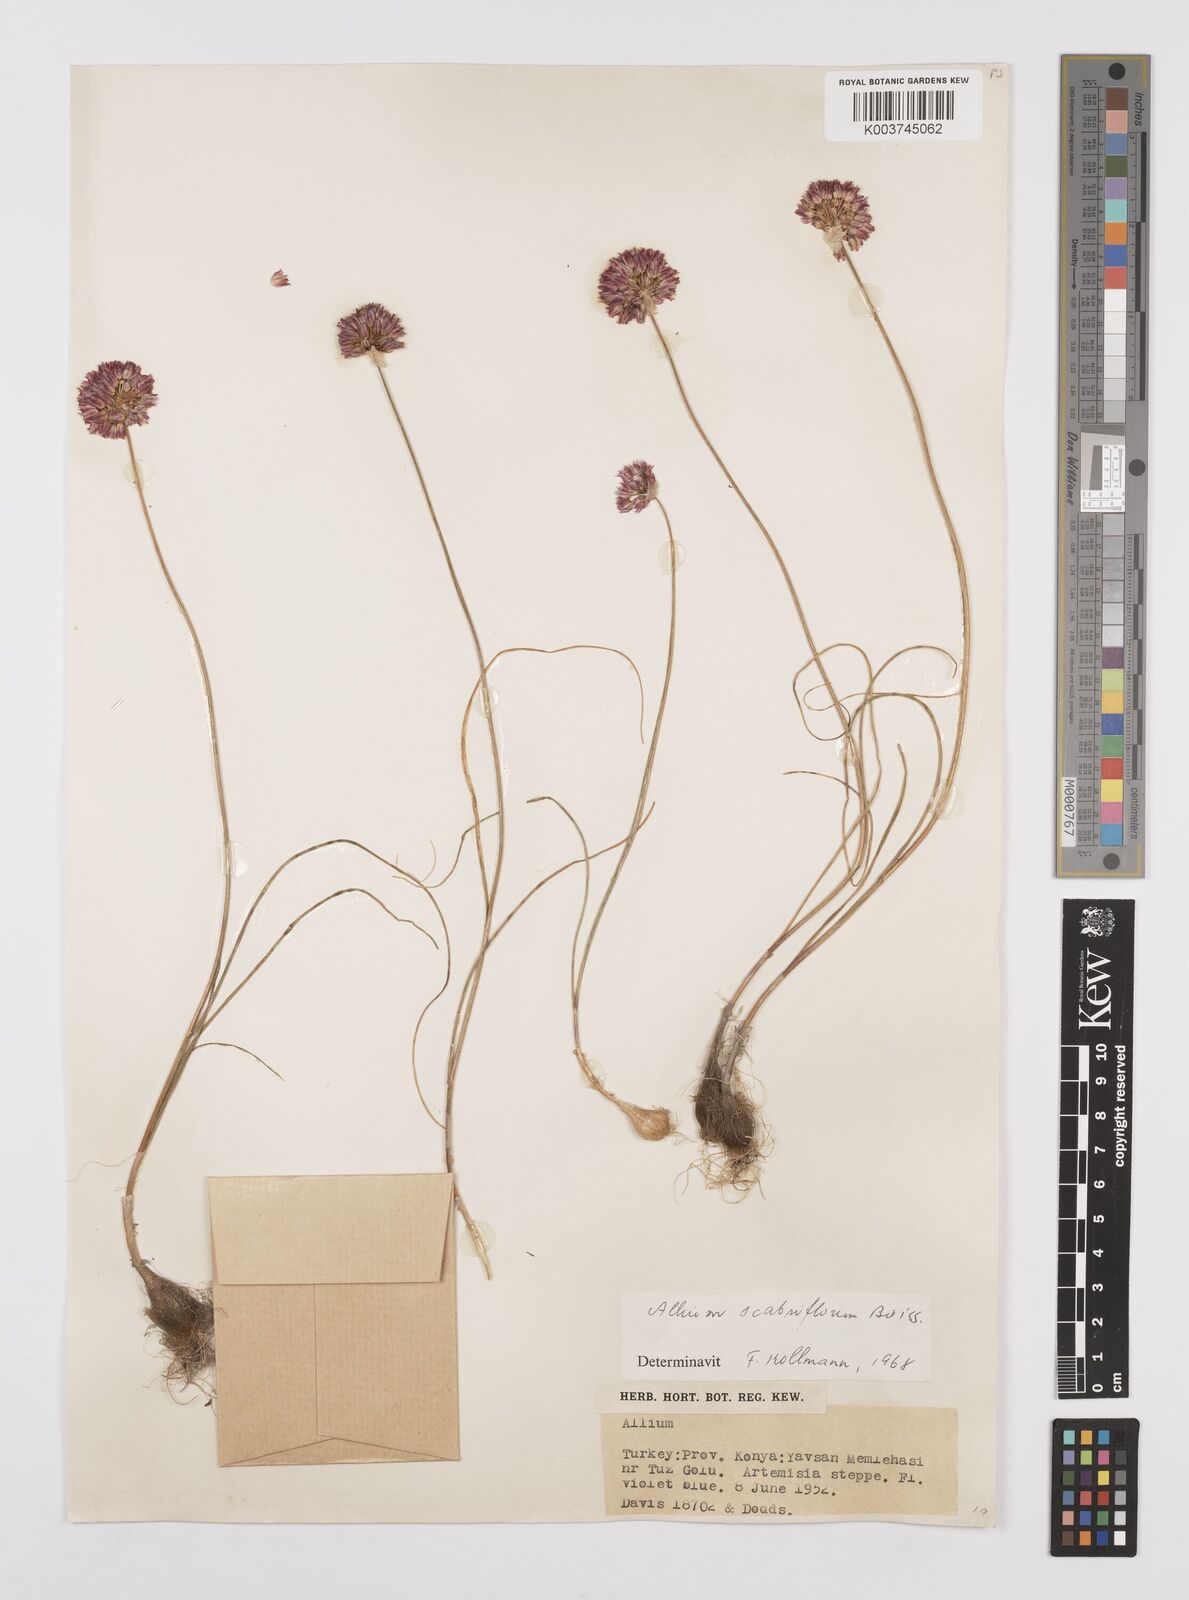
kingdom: Plantae
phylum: Tracheophyta
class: Liliopsida
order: Asparagales
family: Amaryllidaceae
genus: Allium
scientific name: Allium scabriflorum
